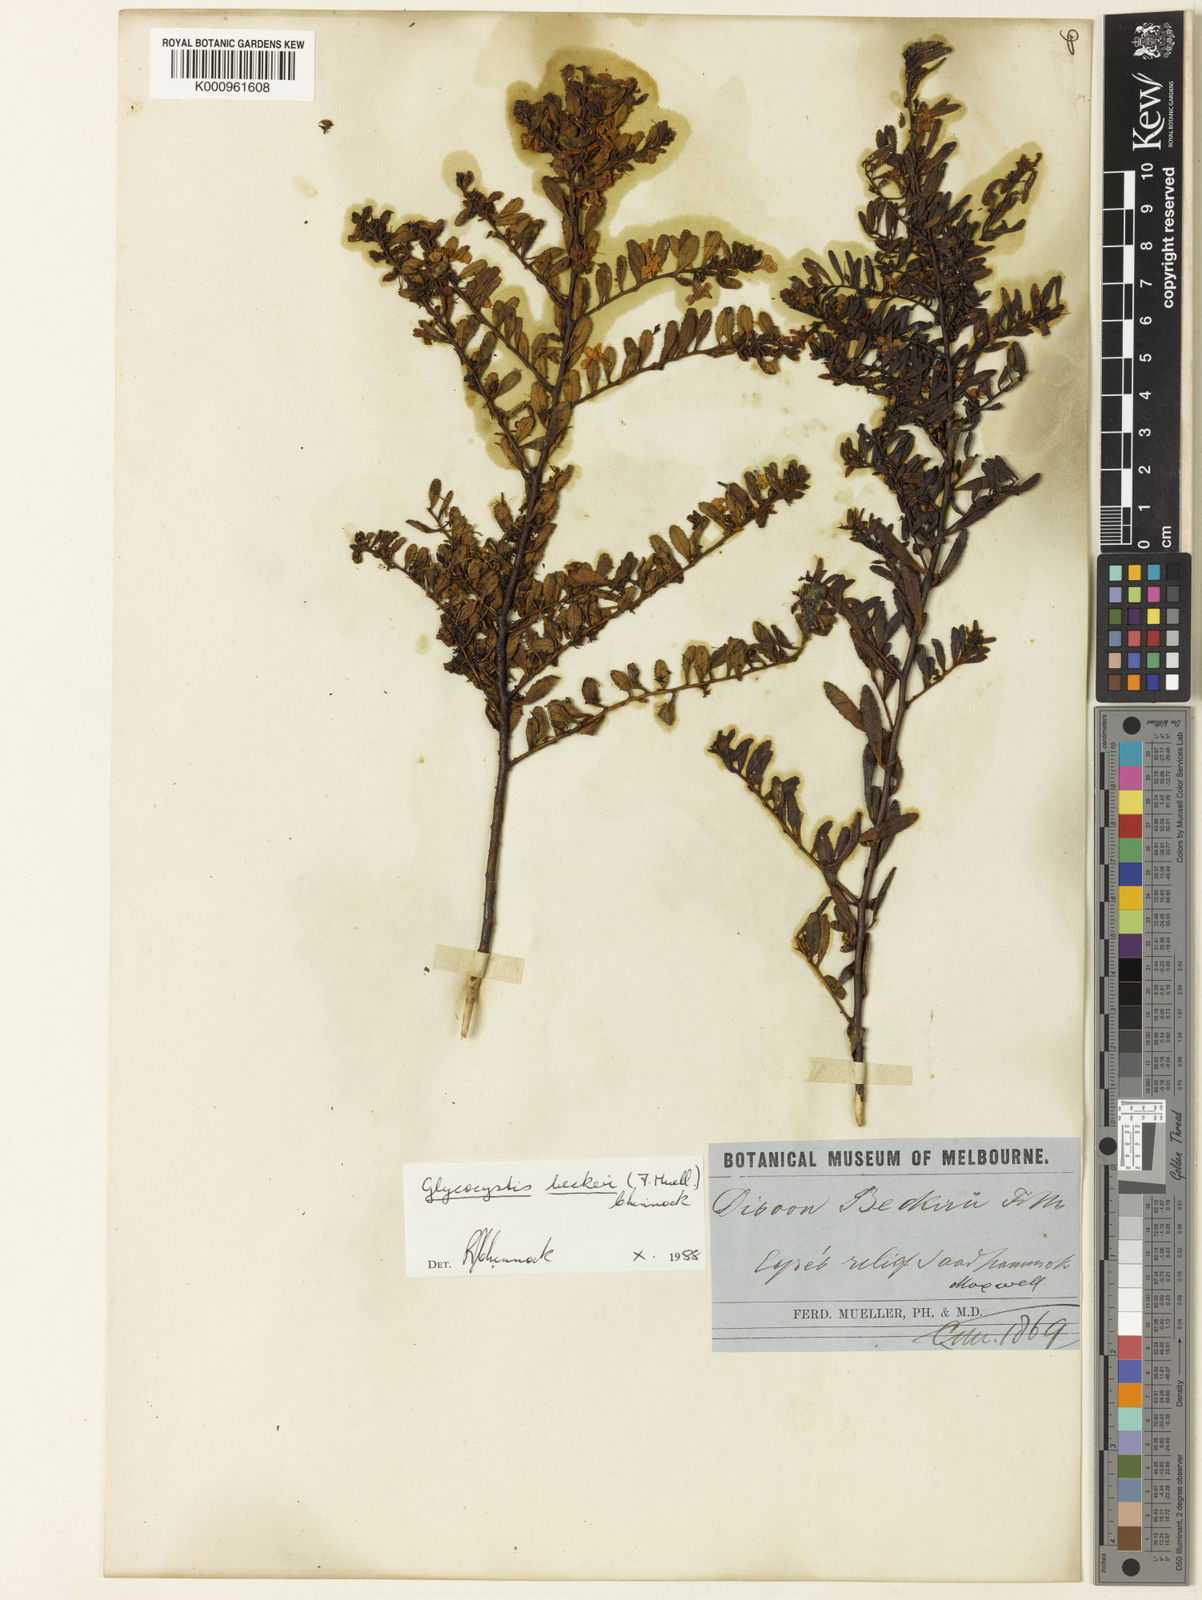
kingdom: Plantae
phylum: Tracheophyta
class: Magnoliopsida
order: Lamiales
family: Scrophulariaceae
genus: Glycocystis
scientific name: Glycocystis beckeri
